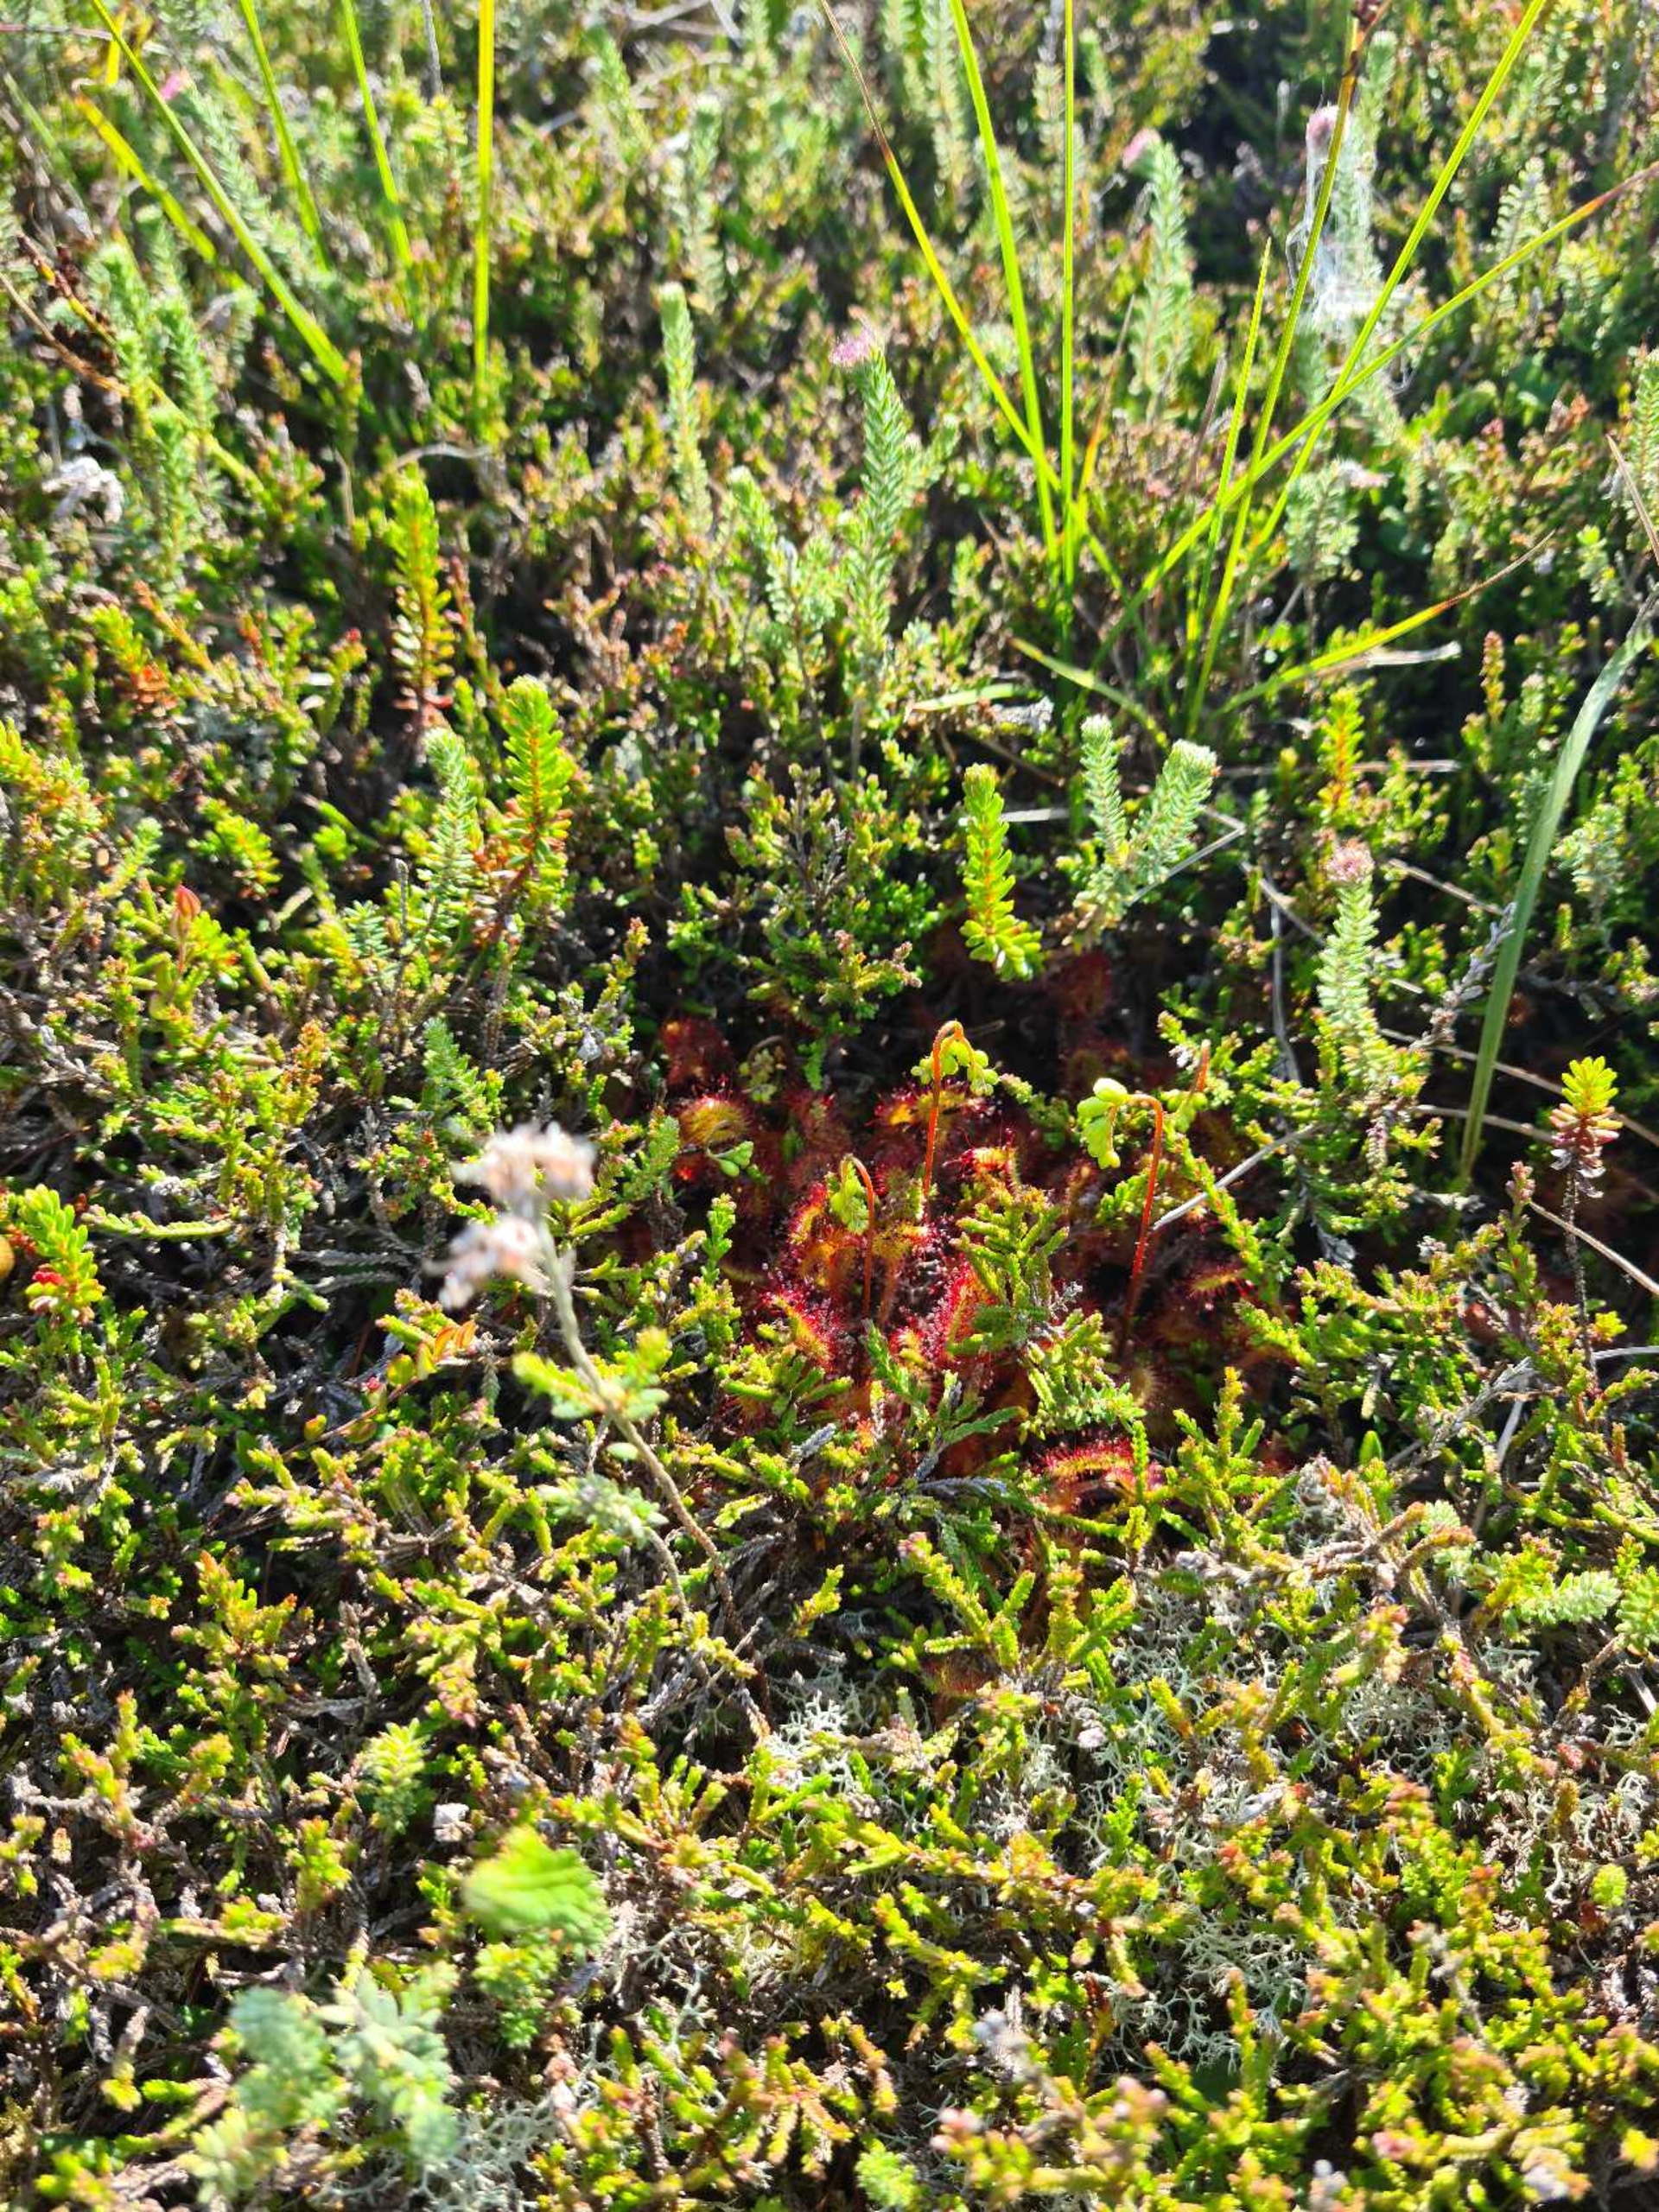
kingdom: Plantae
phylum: Tracheophyta
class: Magnoliopsida
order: Caryophyllales
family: Droseraceae
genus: Drosera
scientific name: Drosera rotundifolia
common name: Rundbladet soldug
